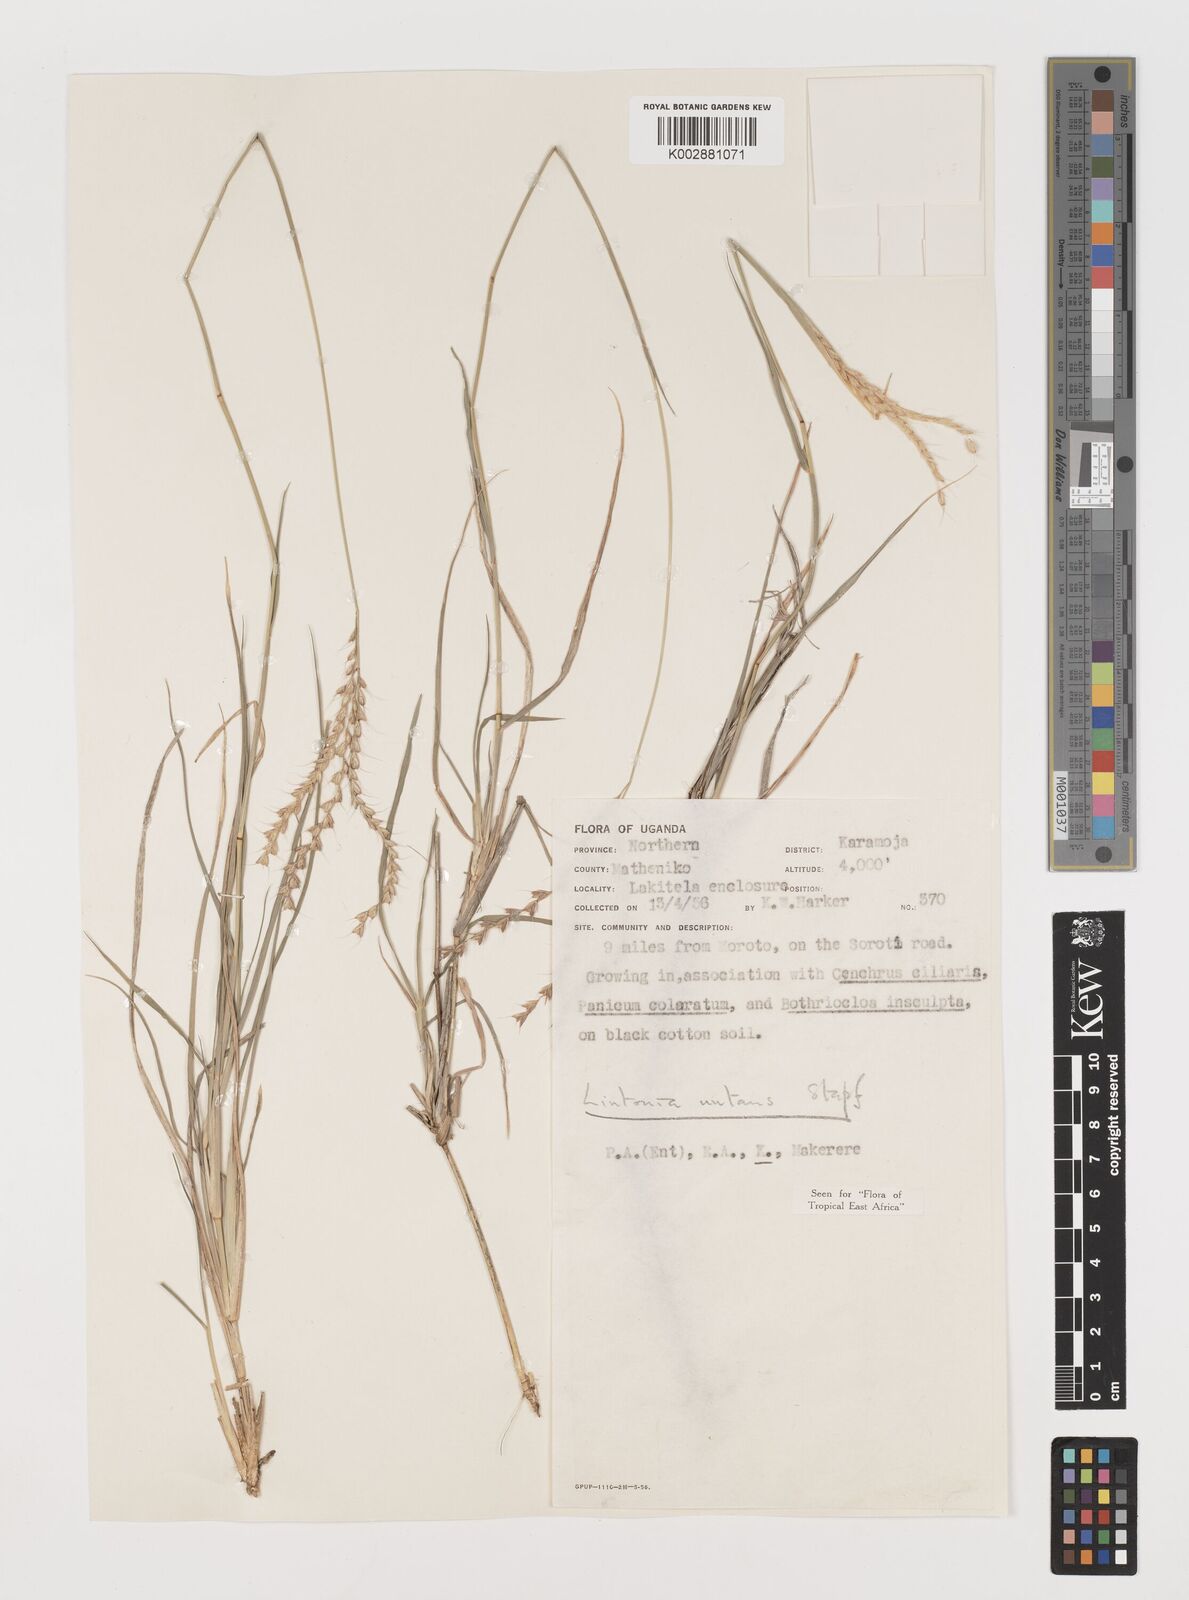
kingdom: Plantae
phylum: Tracheophyta
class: Liliopsida
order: Poales
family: Poaceae
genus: Chloris
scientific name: Chloris nutans
